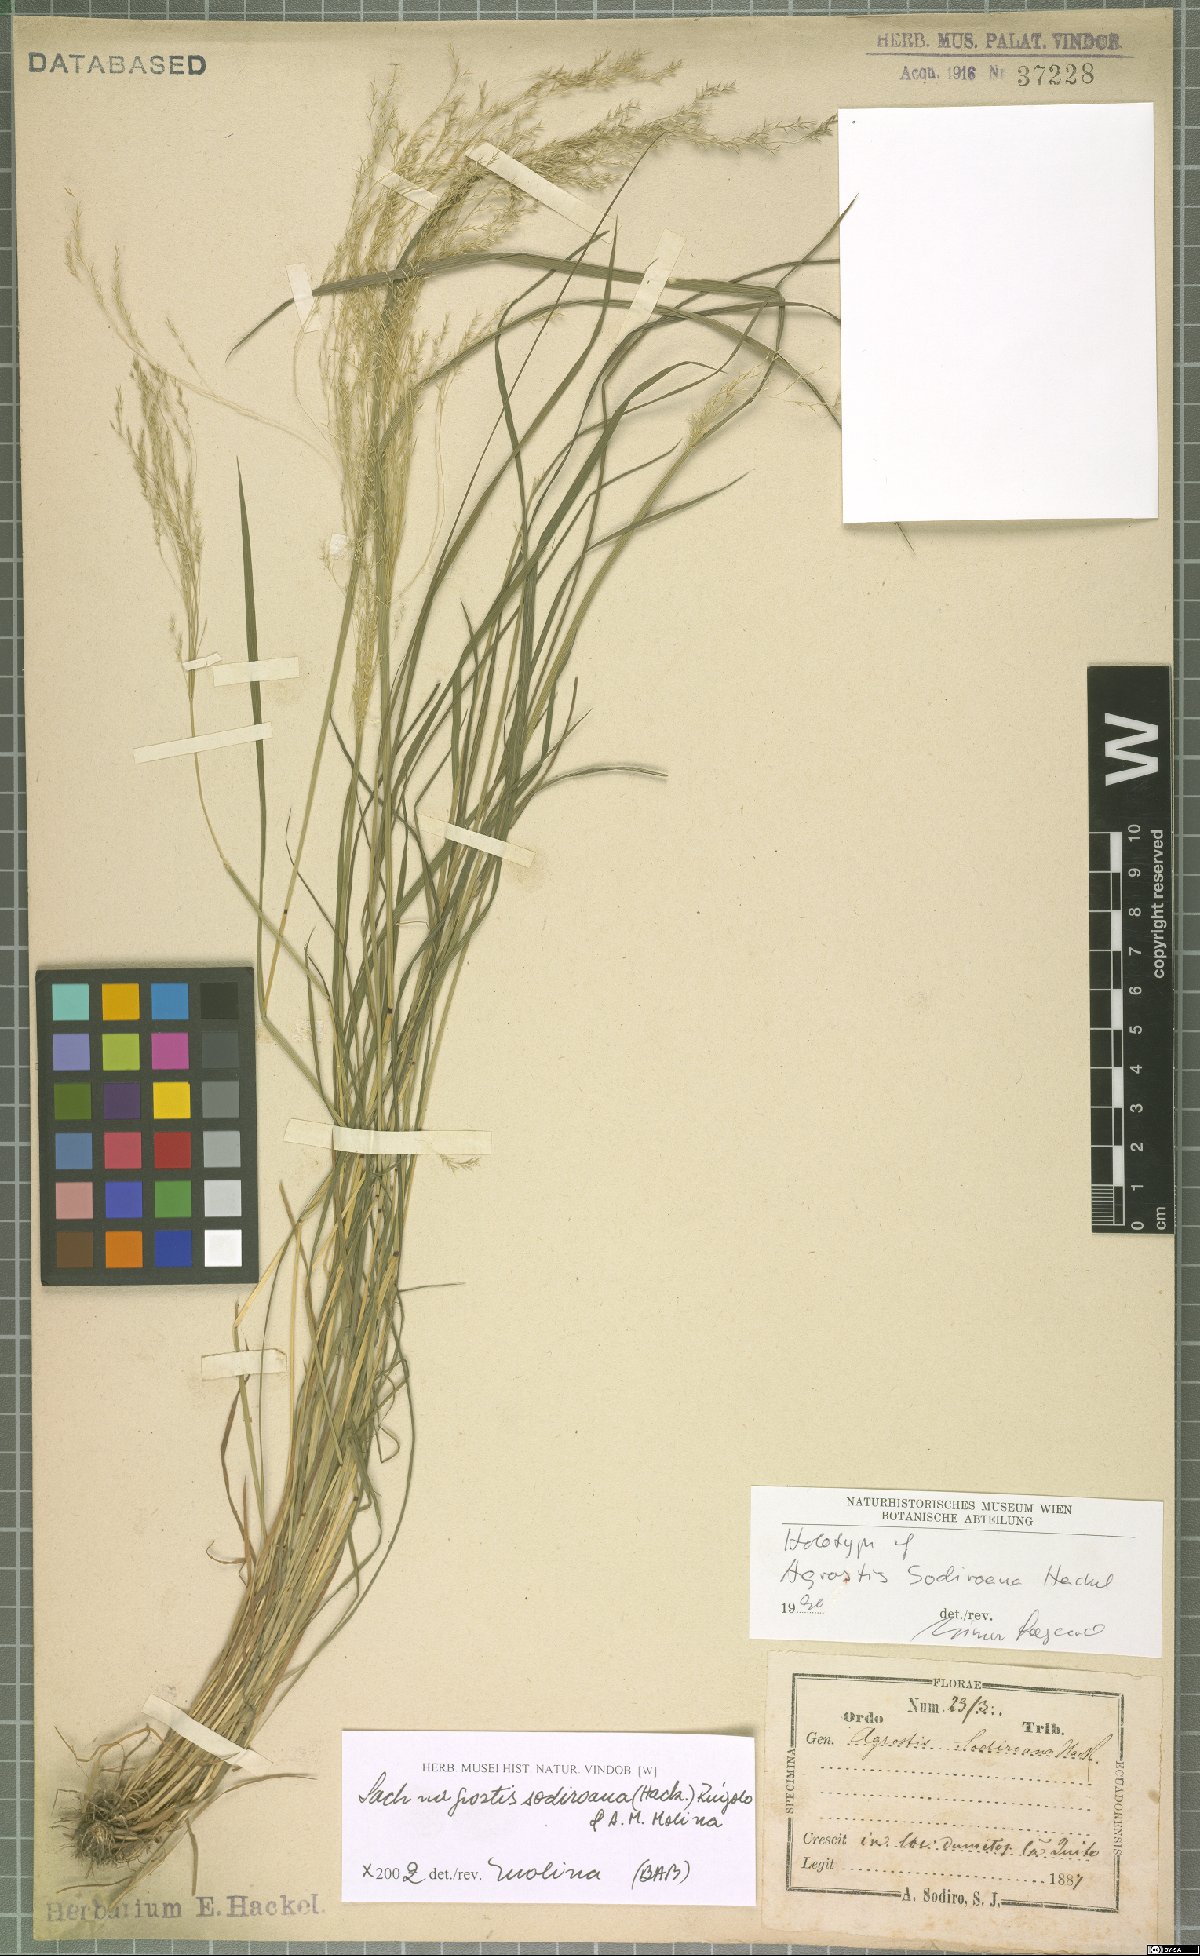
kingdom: Plantae
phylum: Tracheophyta
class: Liliopsida
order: Poales
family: Poaceae
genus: Lachnagrostis
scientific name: Lachnagrostis sodiroana
